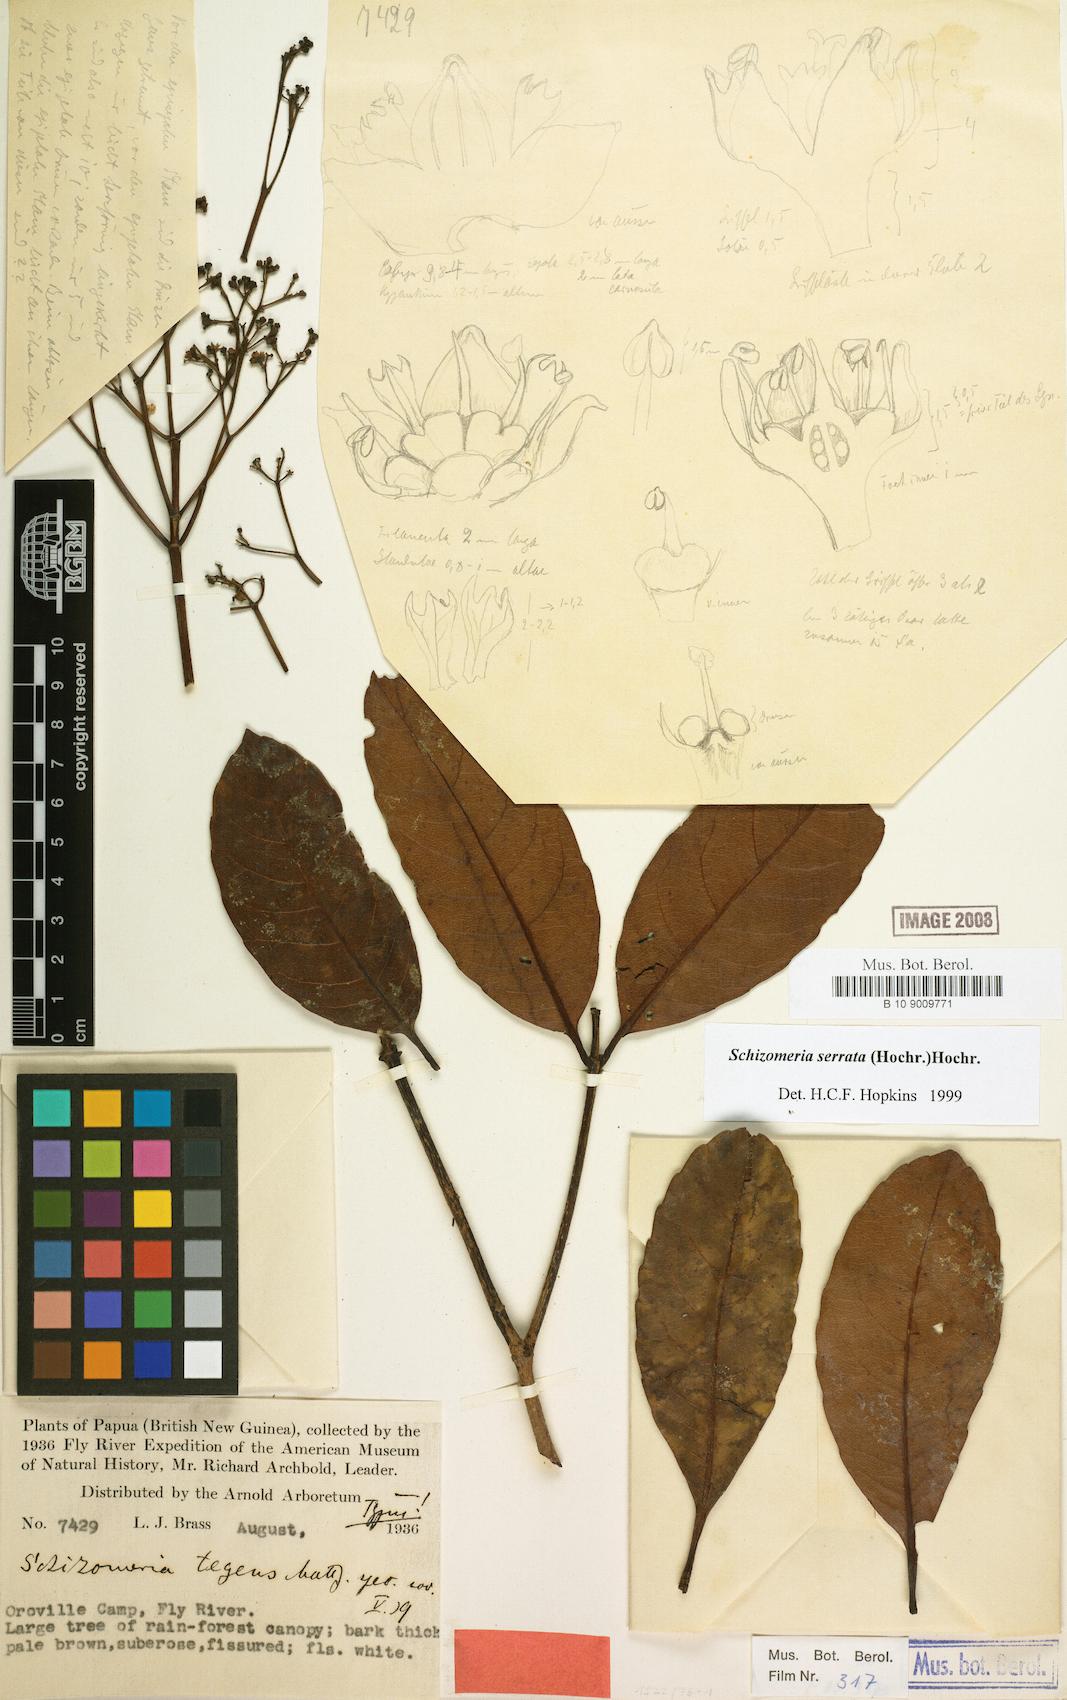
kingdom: Plantae
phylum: Tracheophyta
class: Magnoliopsida
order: Oxalidales
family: Cunoniaceae
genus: Schizomeria
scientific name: Schizomeria serrata
